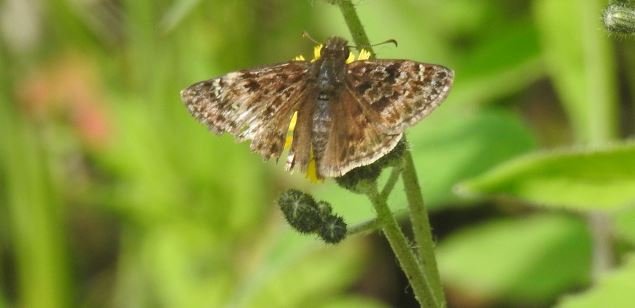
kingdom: Animalia
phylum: Arthropoda
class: Insecta
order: Lepidoptera
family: Hesperiidae
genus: Erynnis
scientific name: Erynnis martialis
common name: Mottled Duskywing
